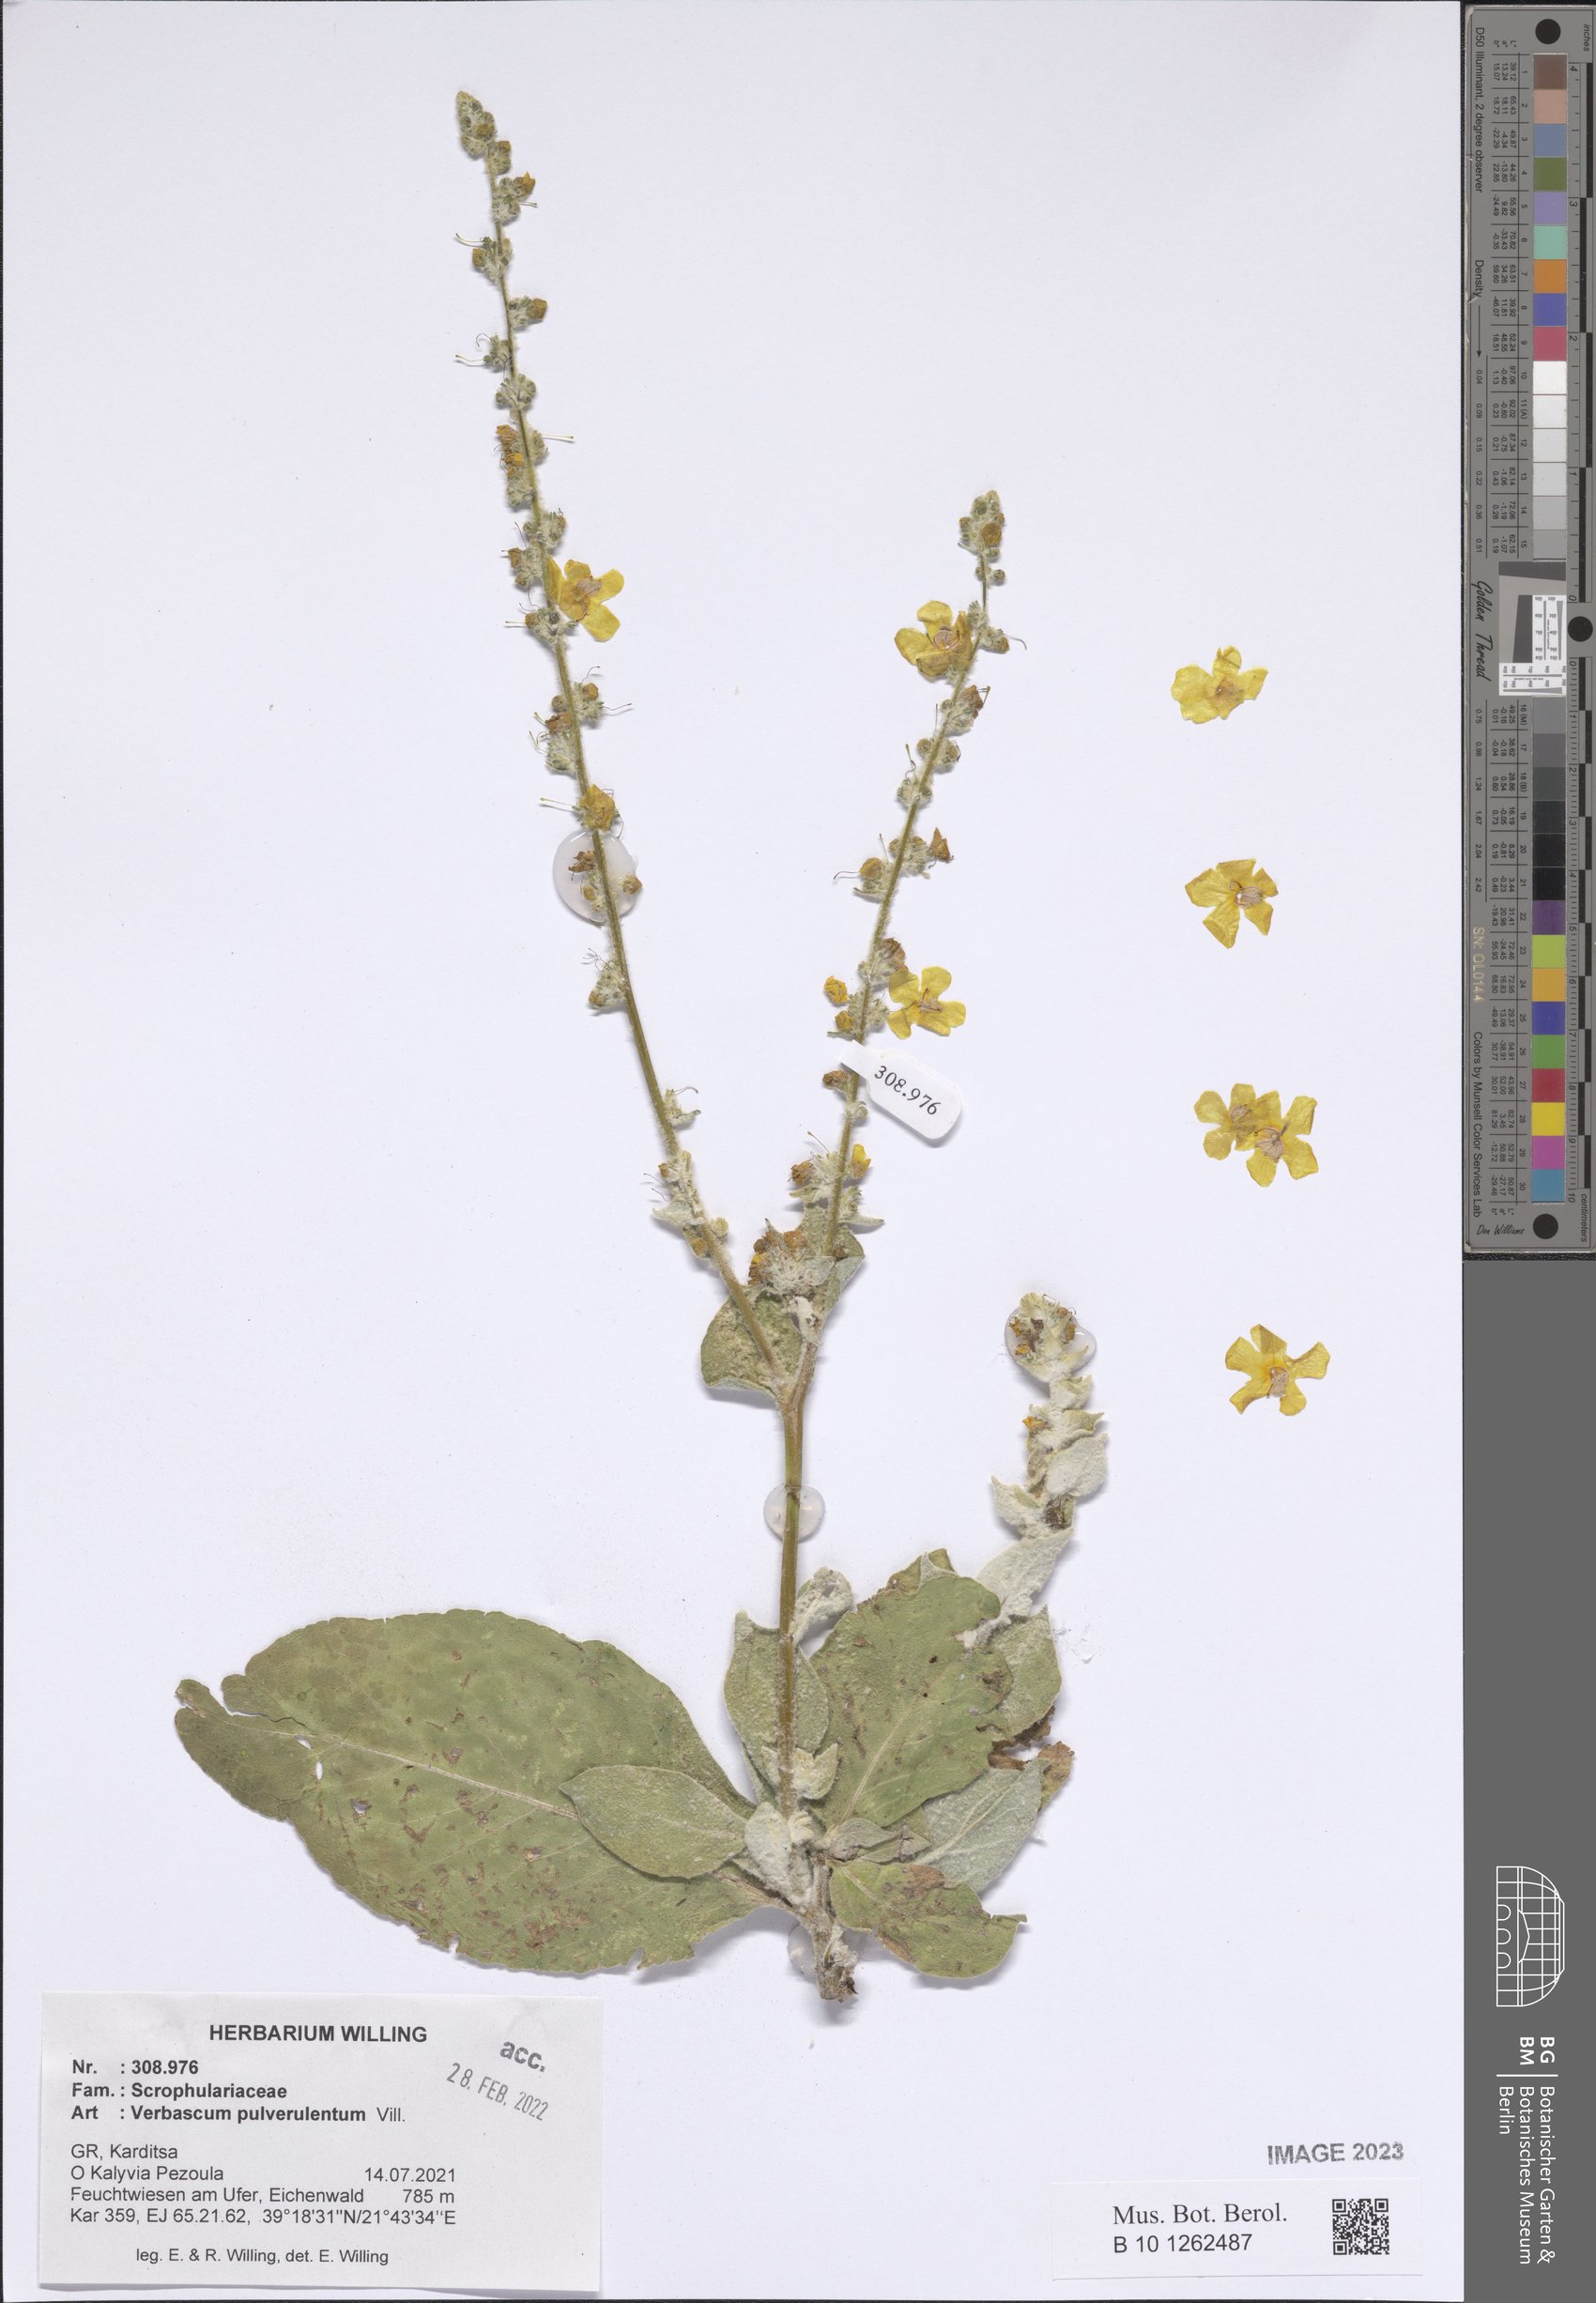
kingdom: Plantae
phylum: Tracheophyta
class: Magnoliopsida
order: Lamiales
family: Scrophulariaceae
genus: Verbascum
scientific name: Verbascum pulverulentum
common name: Broad-leaf mullein
